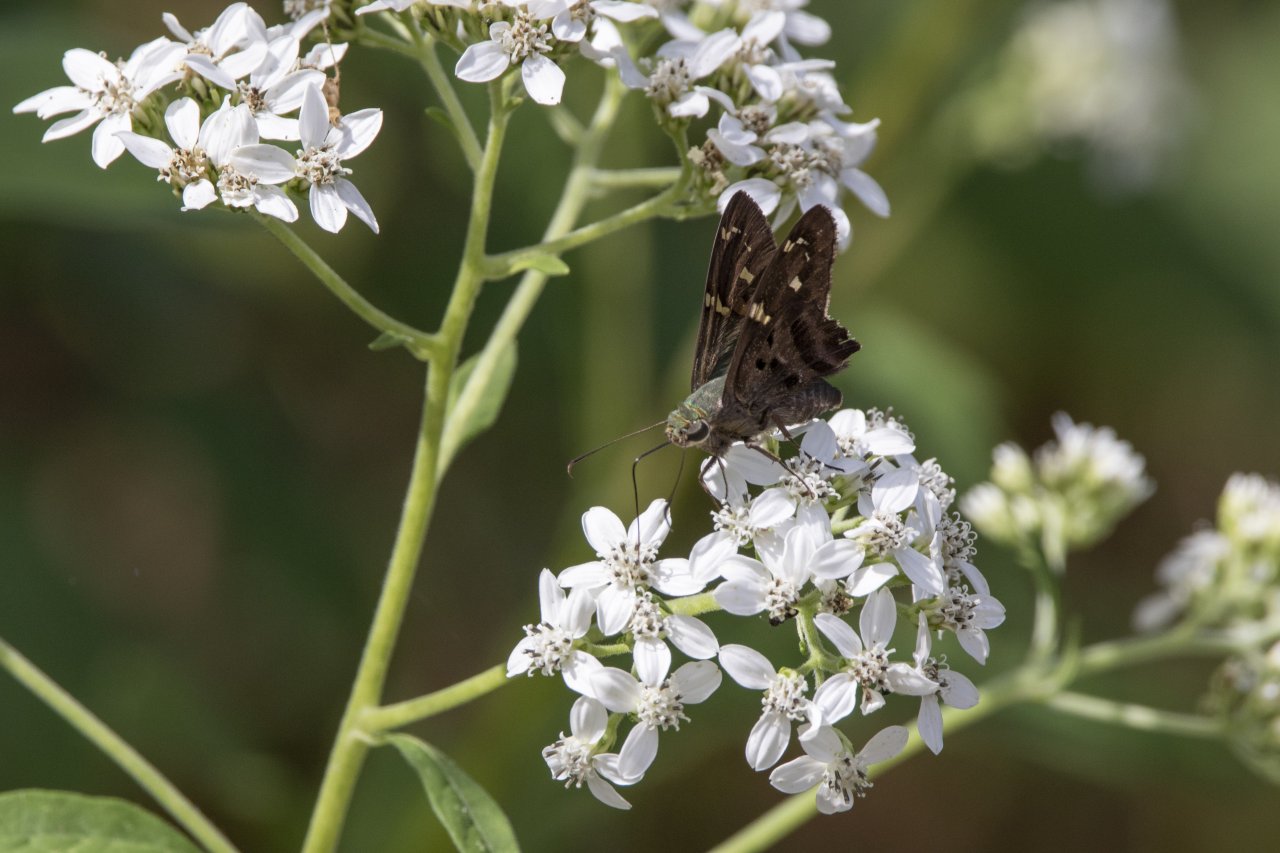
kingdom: Animalia
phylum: Arthropoda
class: Insecta
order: Lepidoptera
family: Hesperiidae
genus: Urbanus
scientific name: Urbanus proteus
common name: Long-tailed Skipper
